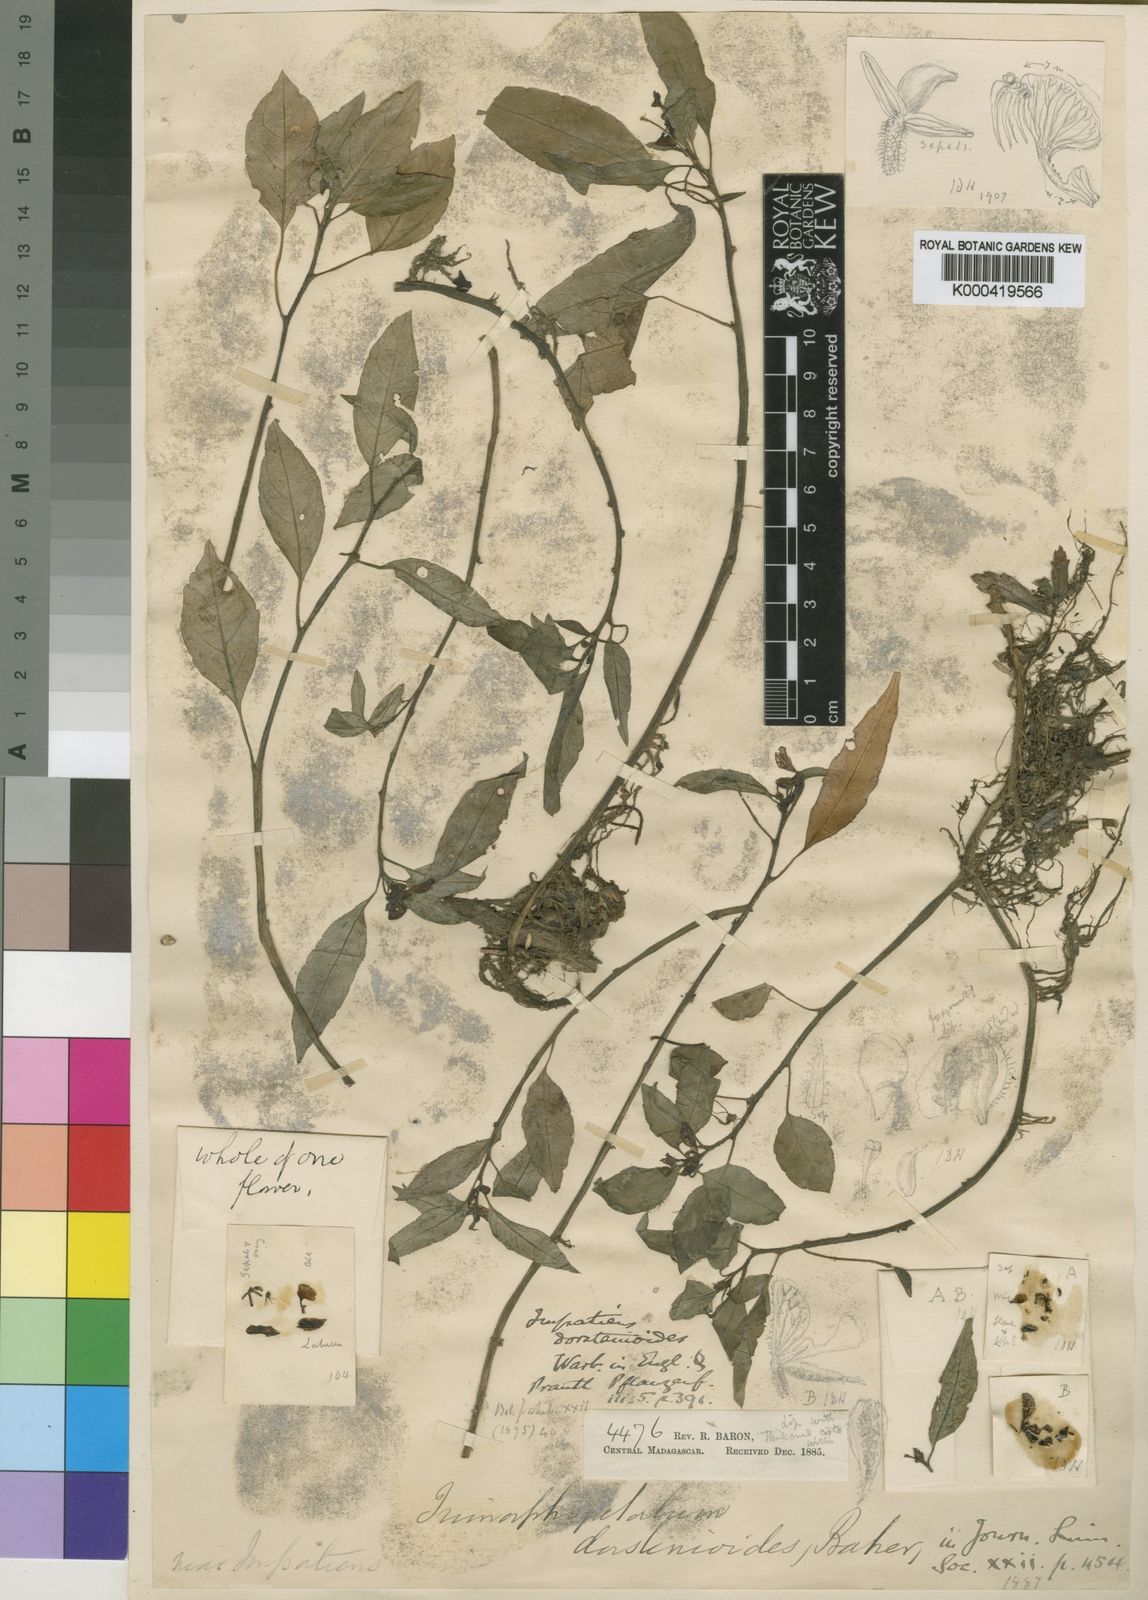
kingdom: Plantae
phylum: Tracheophyta
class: Magnoliopsida
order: Ericales
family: Balsaminaceae
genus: Impatiens
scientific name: Impatiens humbertii
